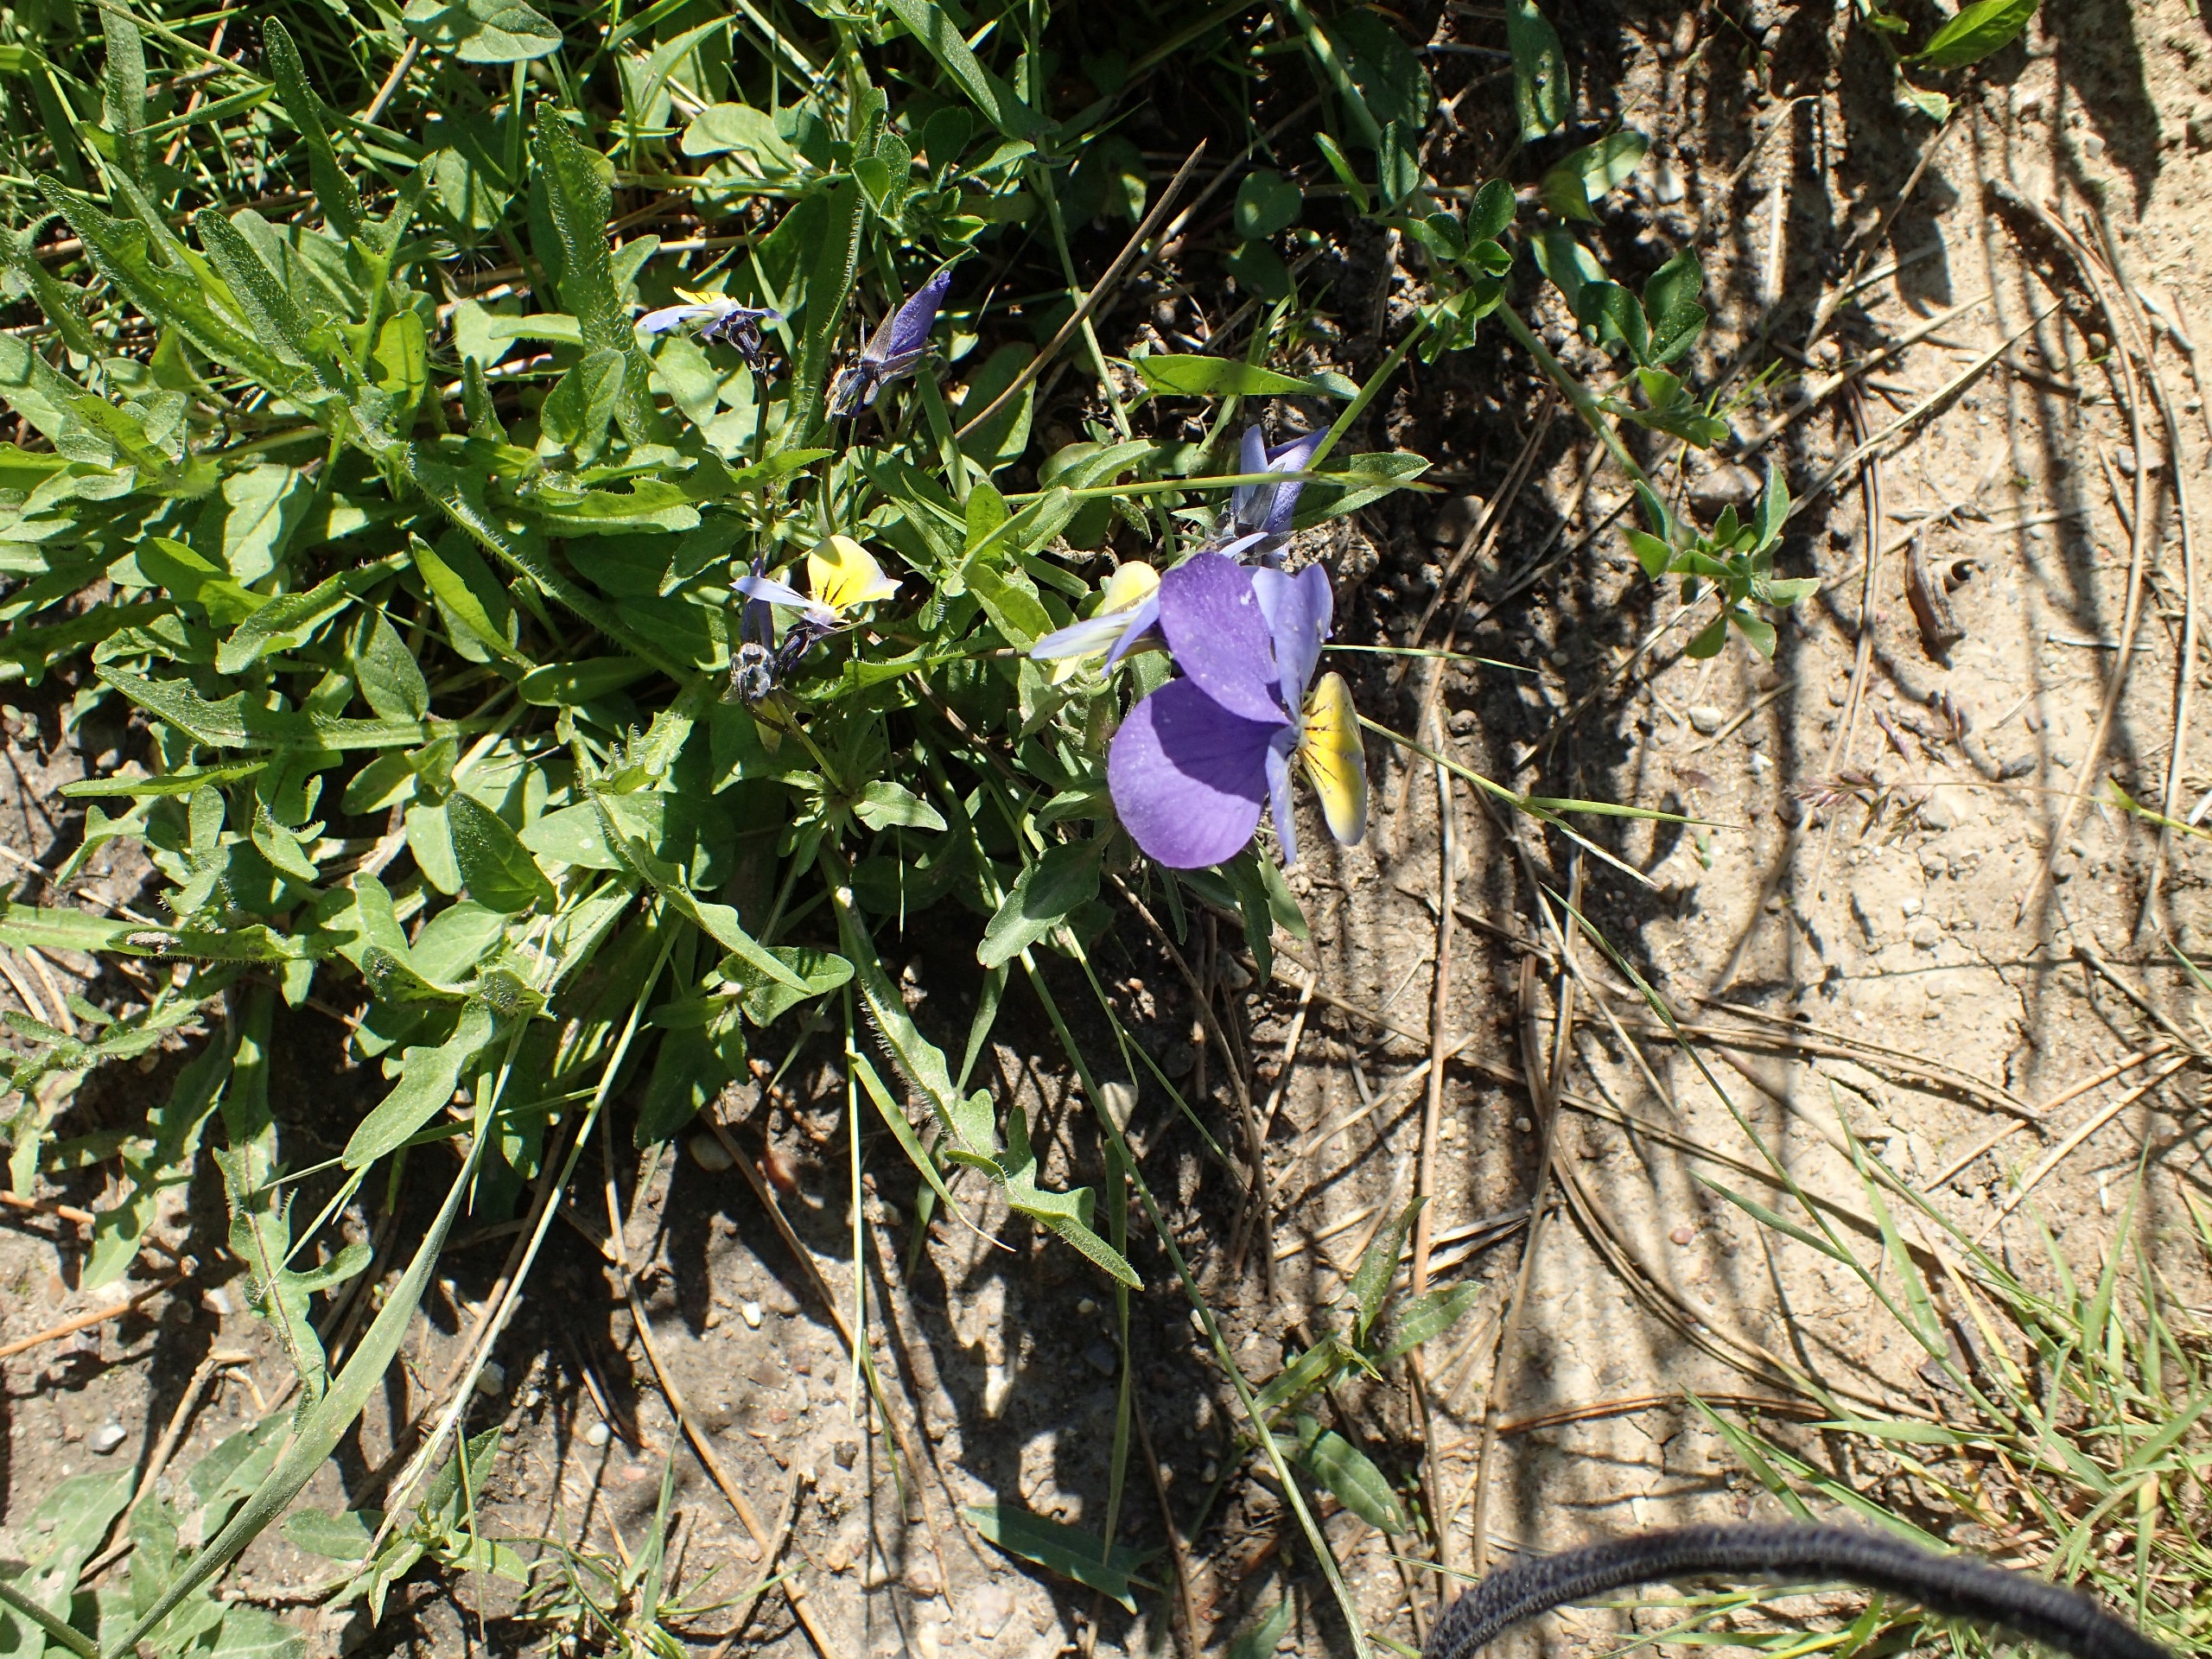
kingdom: Plantae
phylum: Tracheophyta
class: Magnoliopsida
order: Malpighiales
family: Violaceae
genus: Viola
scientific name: Viola tricolor
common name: Almindelig stedmoderblomst
